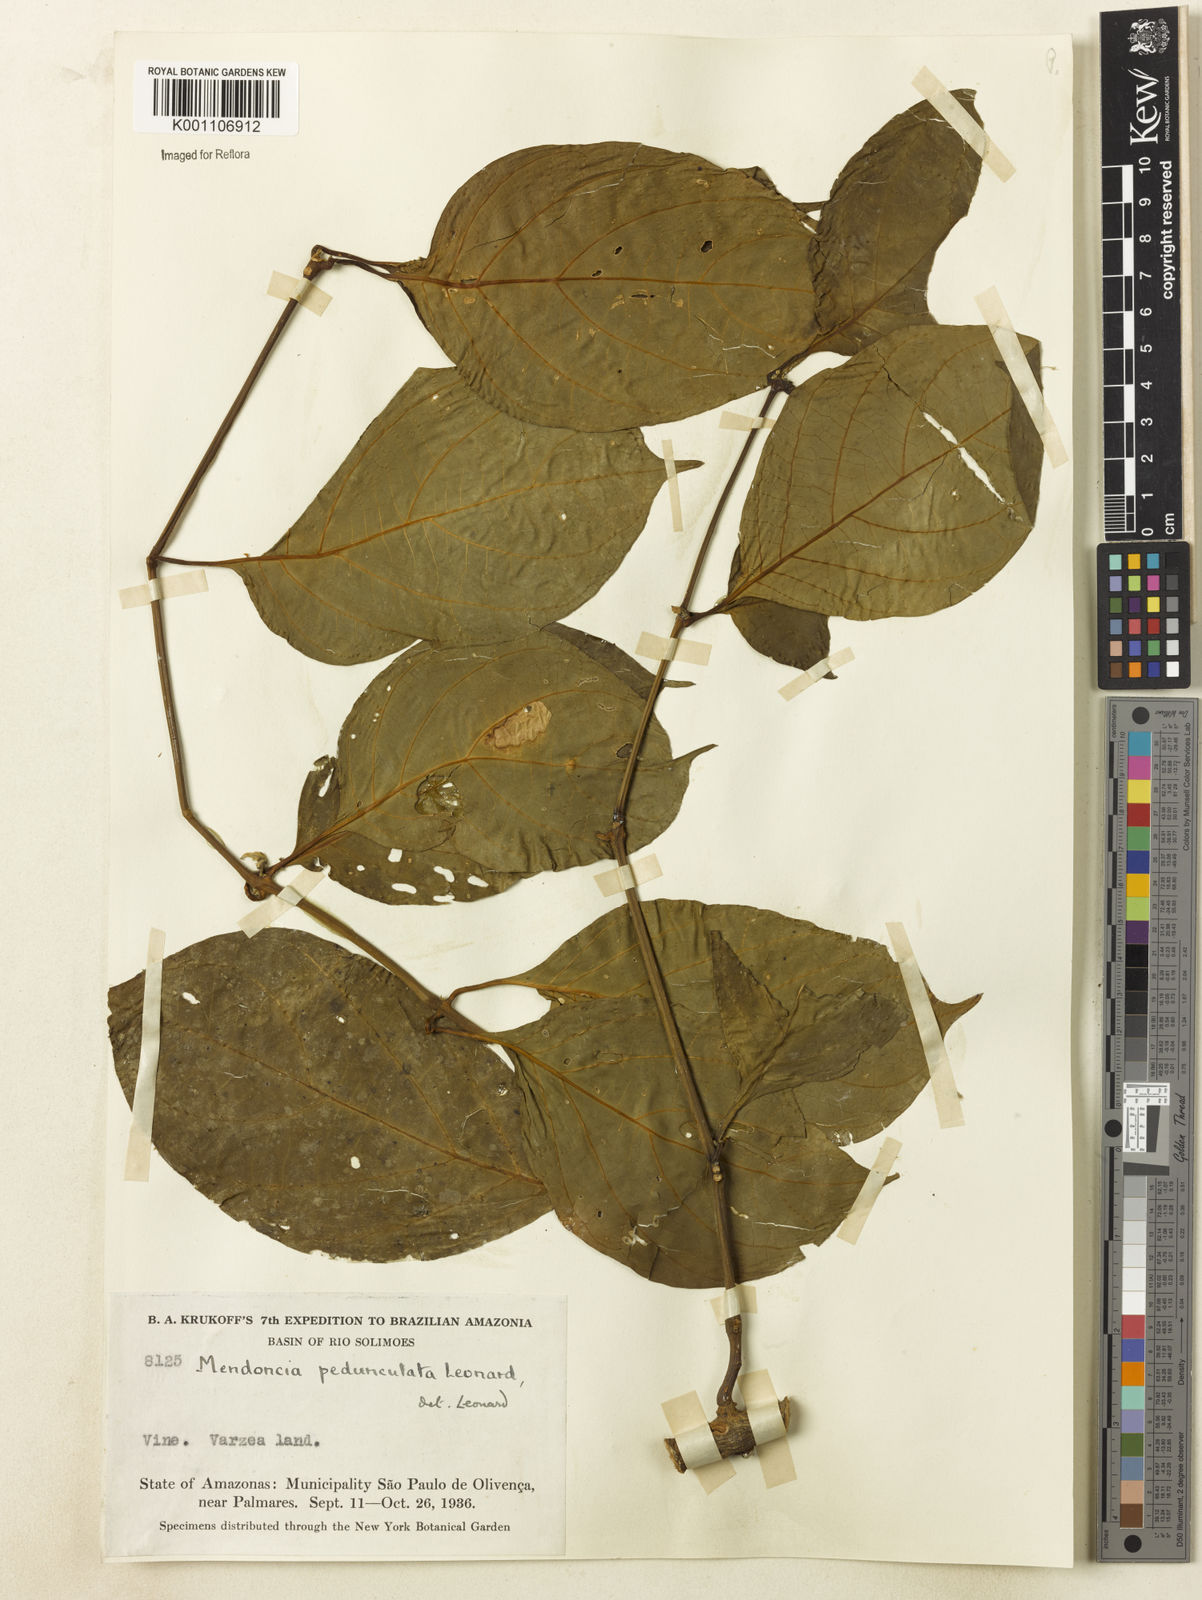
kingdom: Plantae
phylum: Tracheophyta
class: Magnoliopsida
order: Lamiales
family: Acanthaceae
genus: Mendoncia
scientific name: Mendoncia pedunculata
